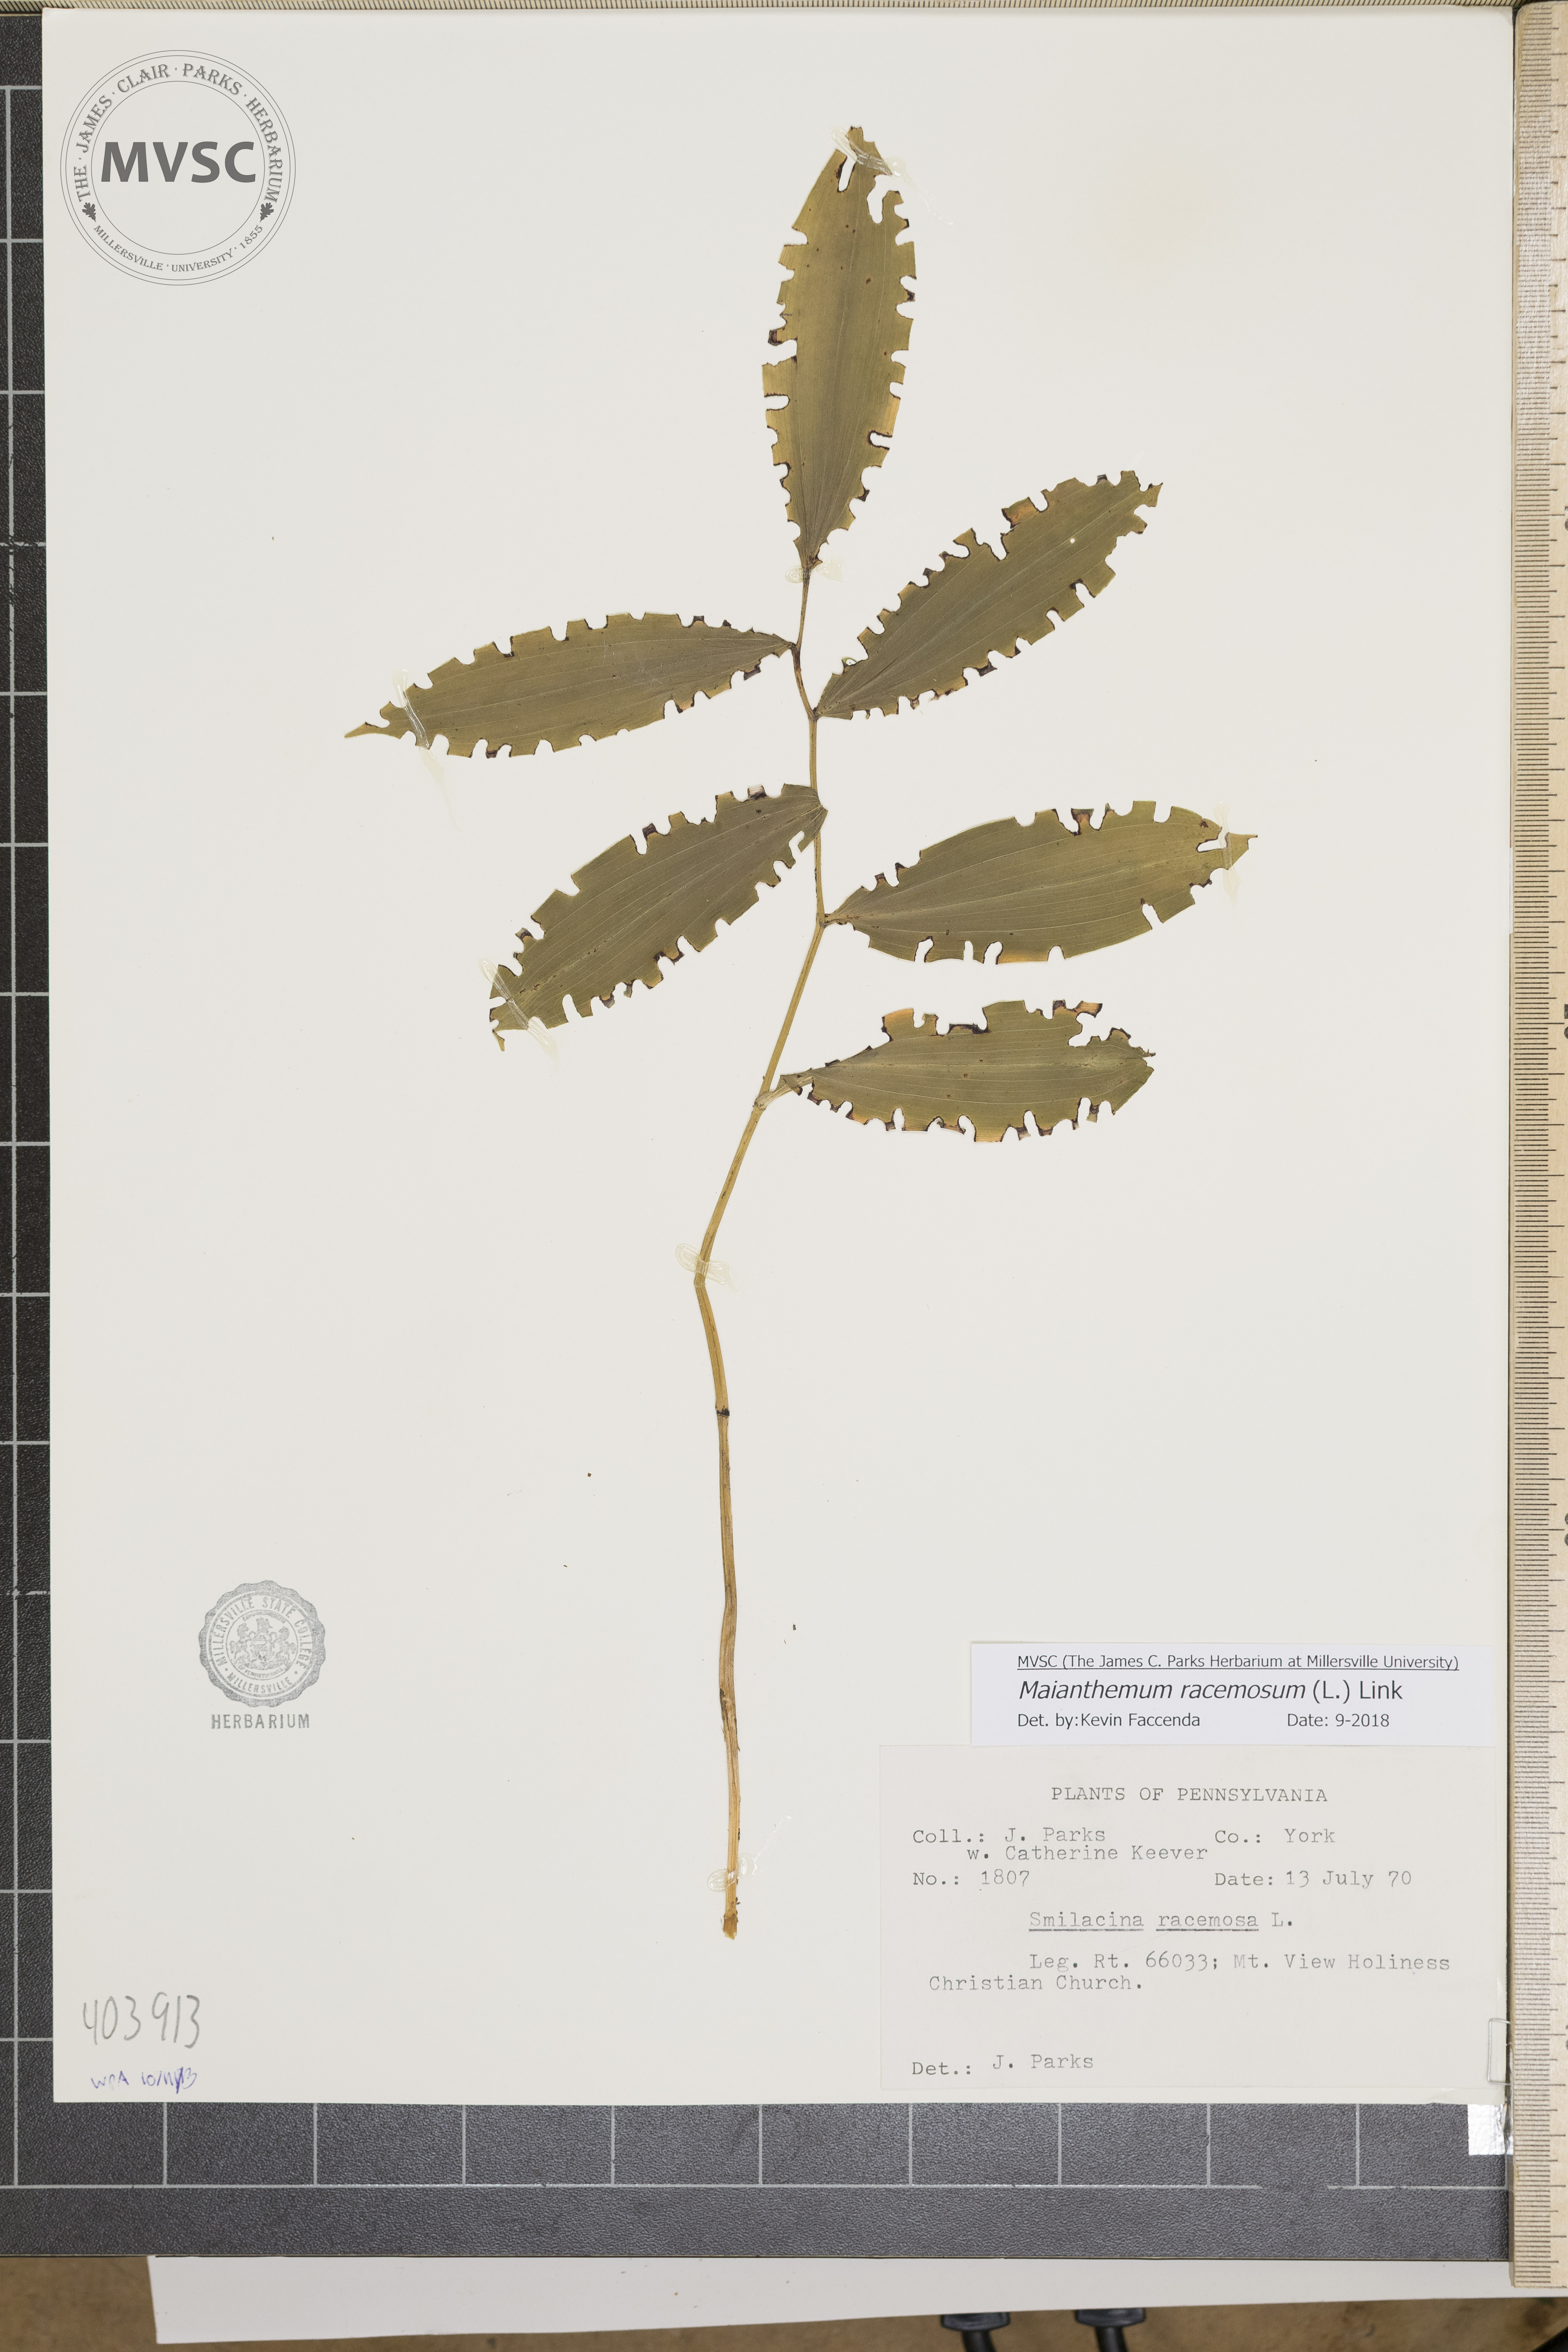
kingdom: Plantae
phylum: Tracheophyta
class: Liliopsida
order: Asparagales
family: Asparagaceae
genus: Maianthemum
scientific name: Maianthemum racemosum
